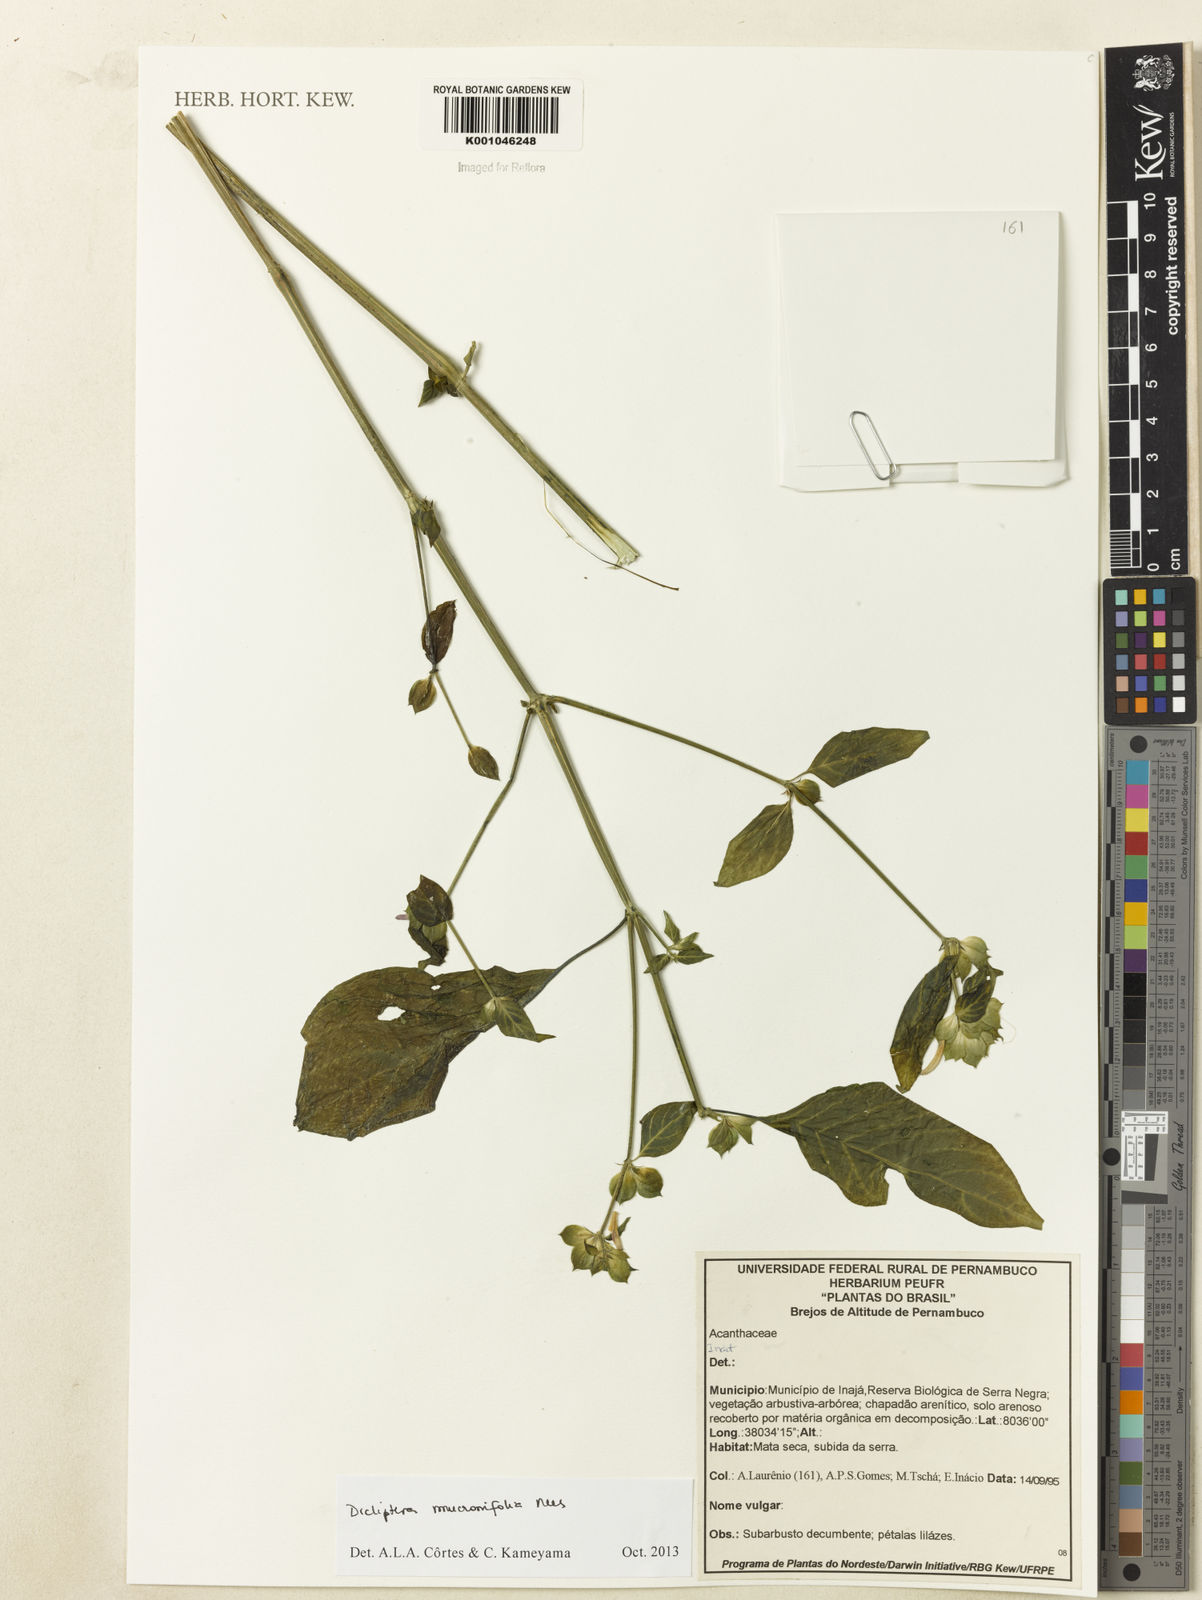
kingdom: Plantae
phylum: Tracheophyta
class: Magnoliopsida
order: Lamiales
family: Acanthaceae
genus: Dicliptera
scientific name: Dicliptera mucronifolia
